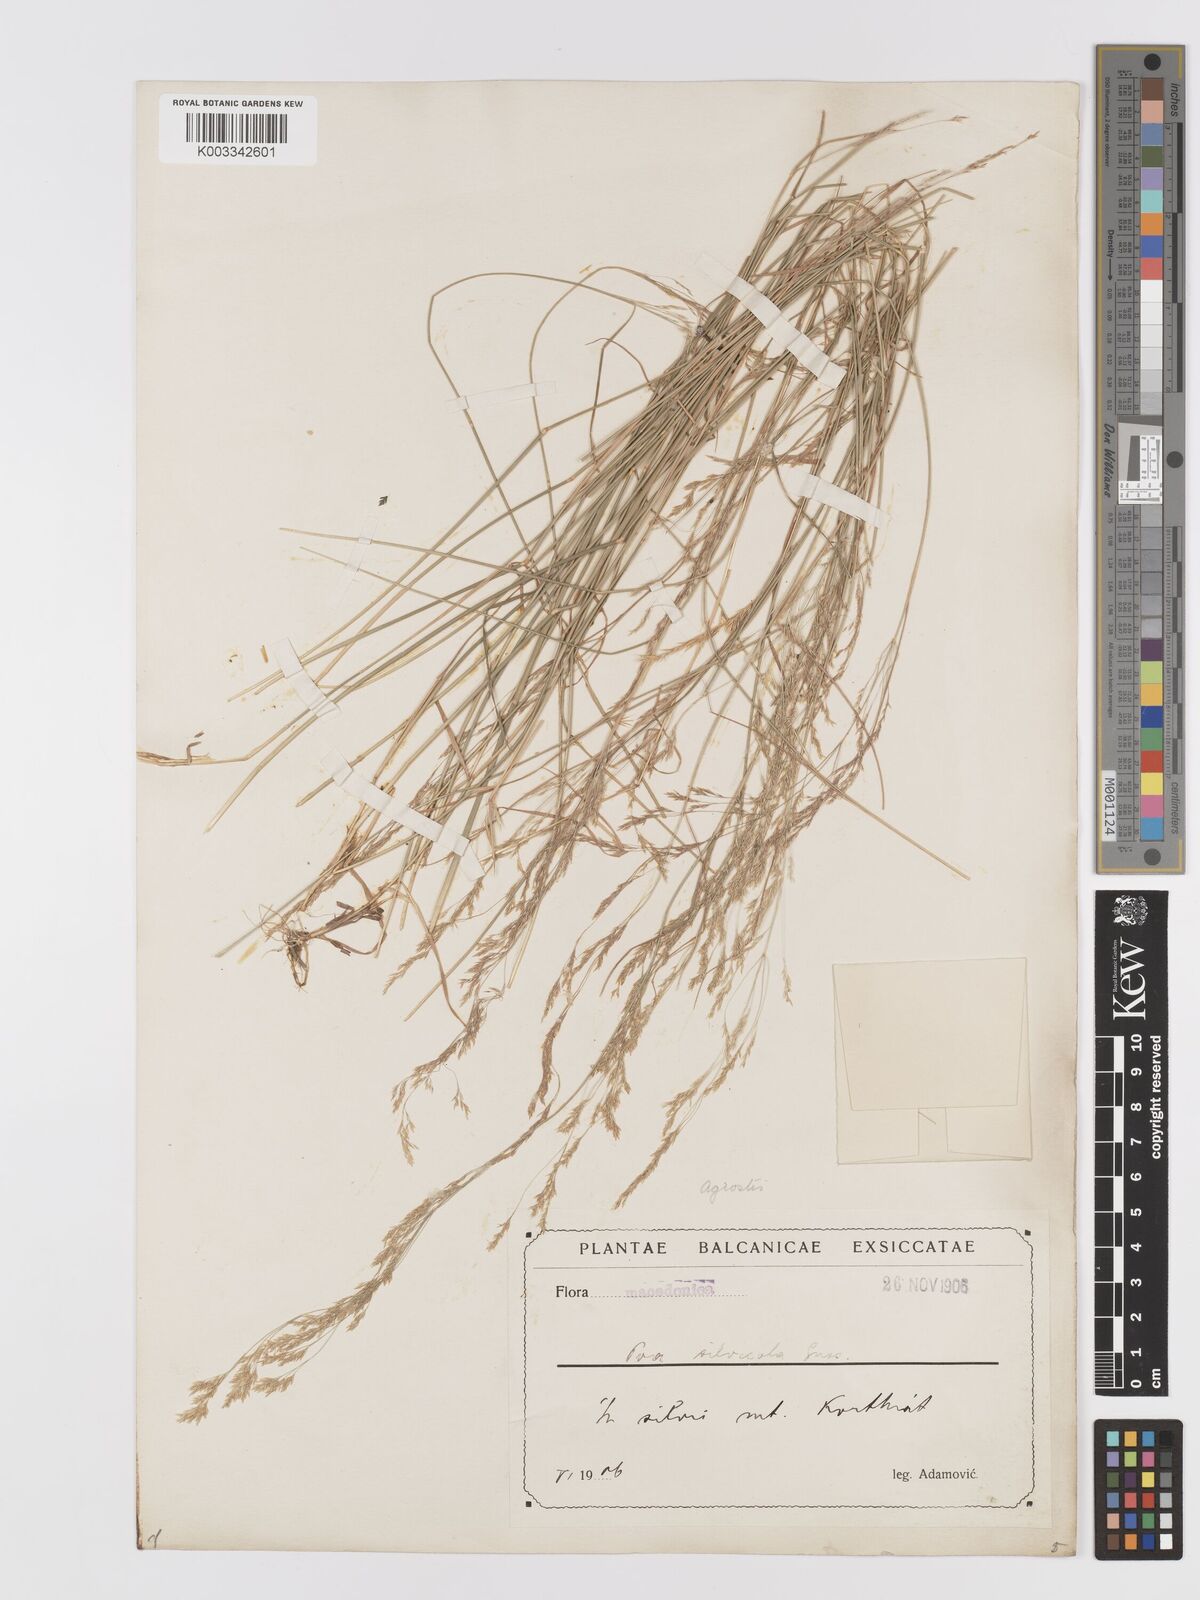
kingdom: Plantae
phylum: Tracheophyta
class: Liliopsida
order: Poales
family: Poaceae
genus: Agrostis
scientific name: Agrostis
